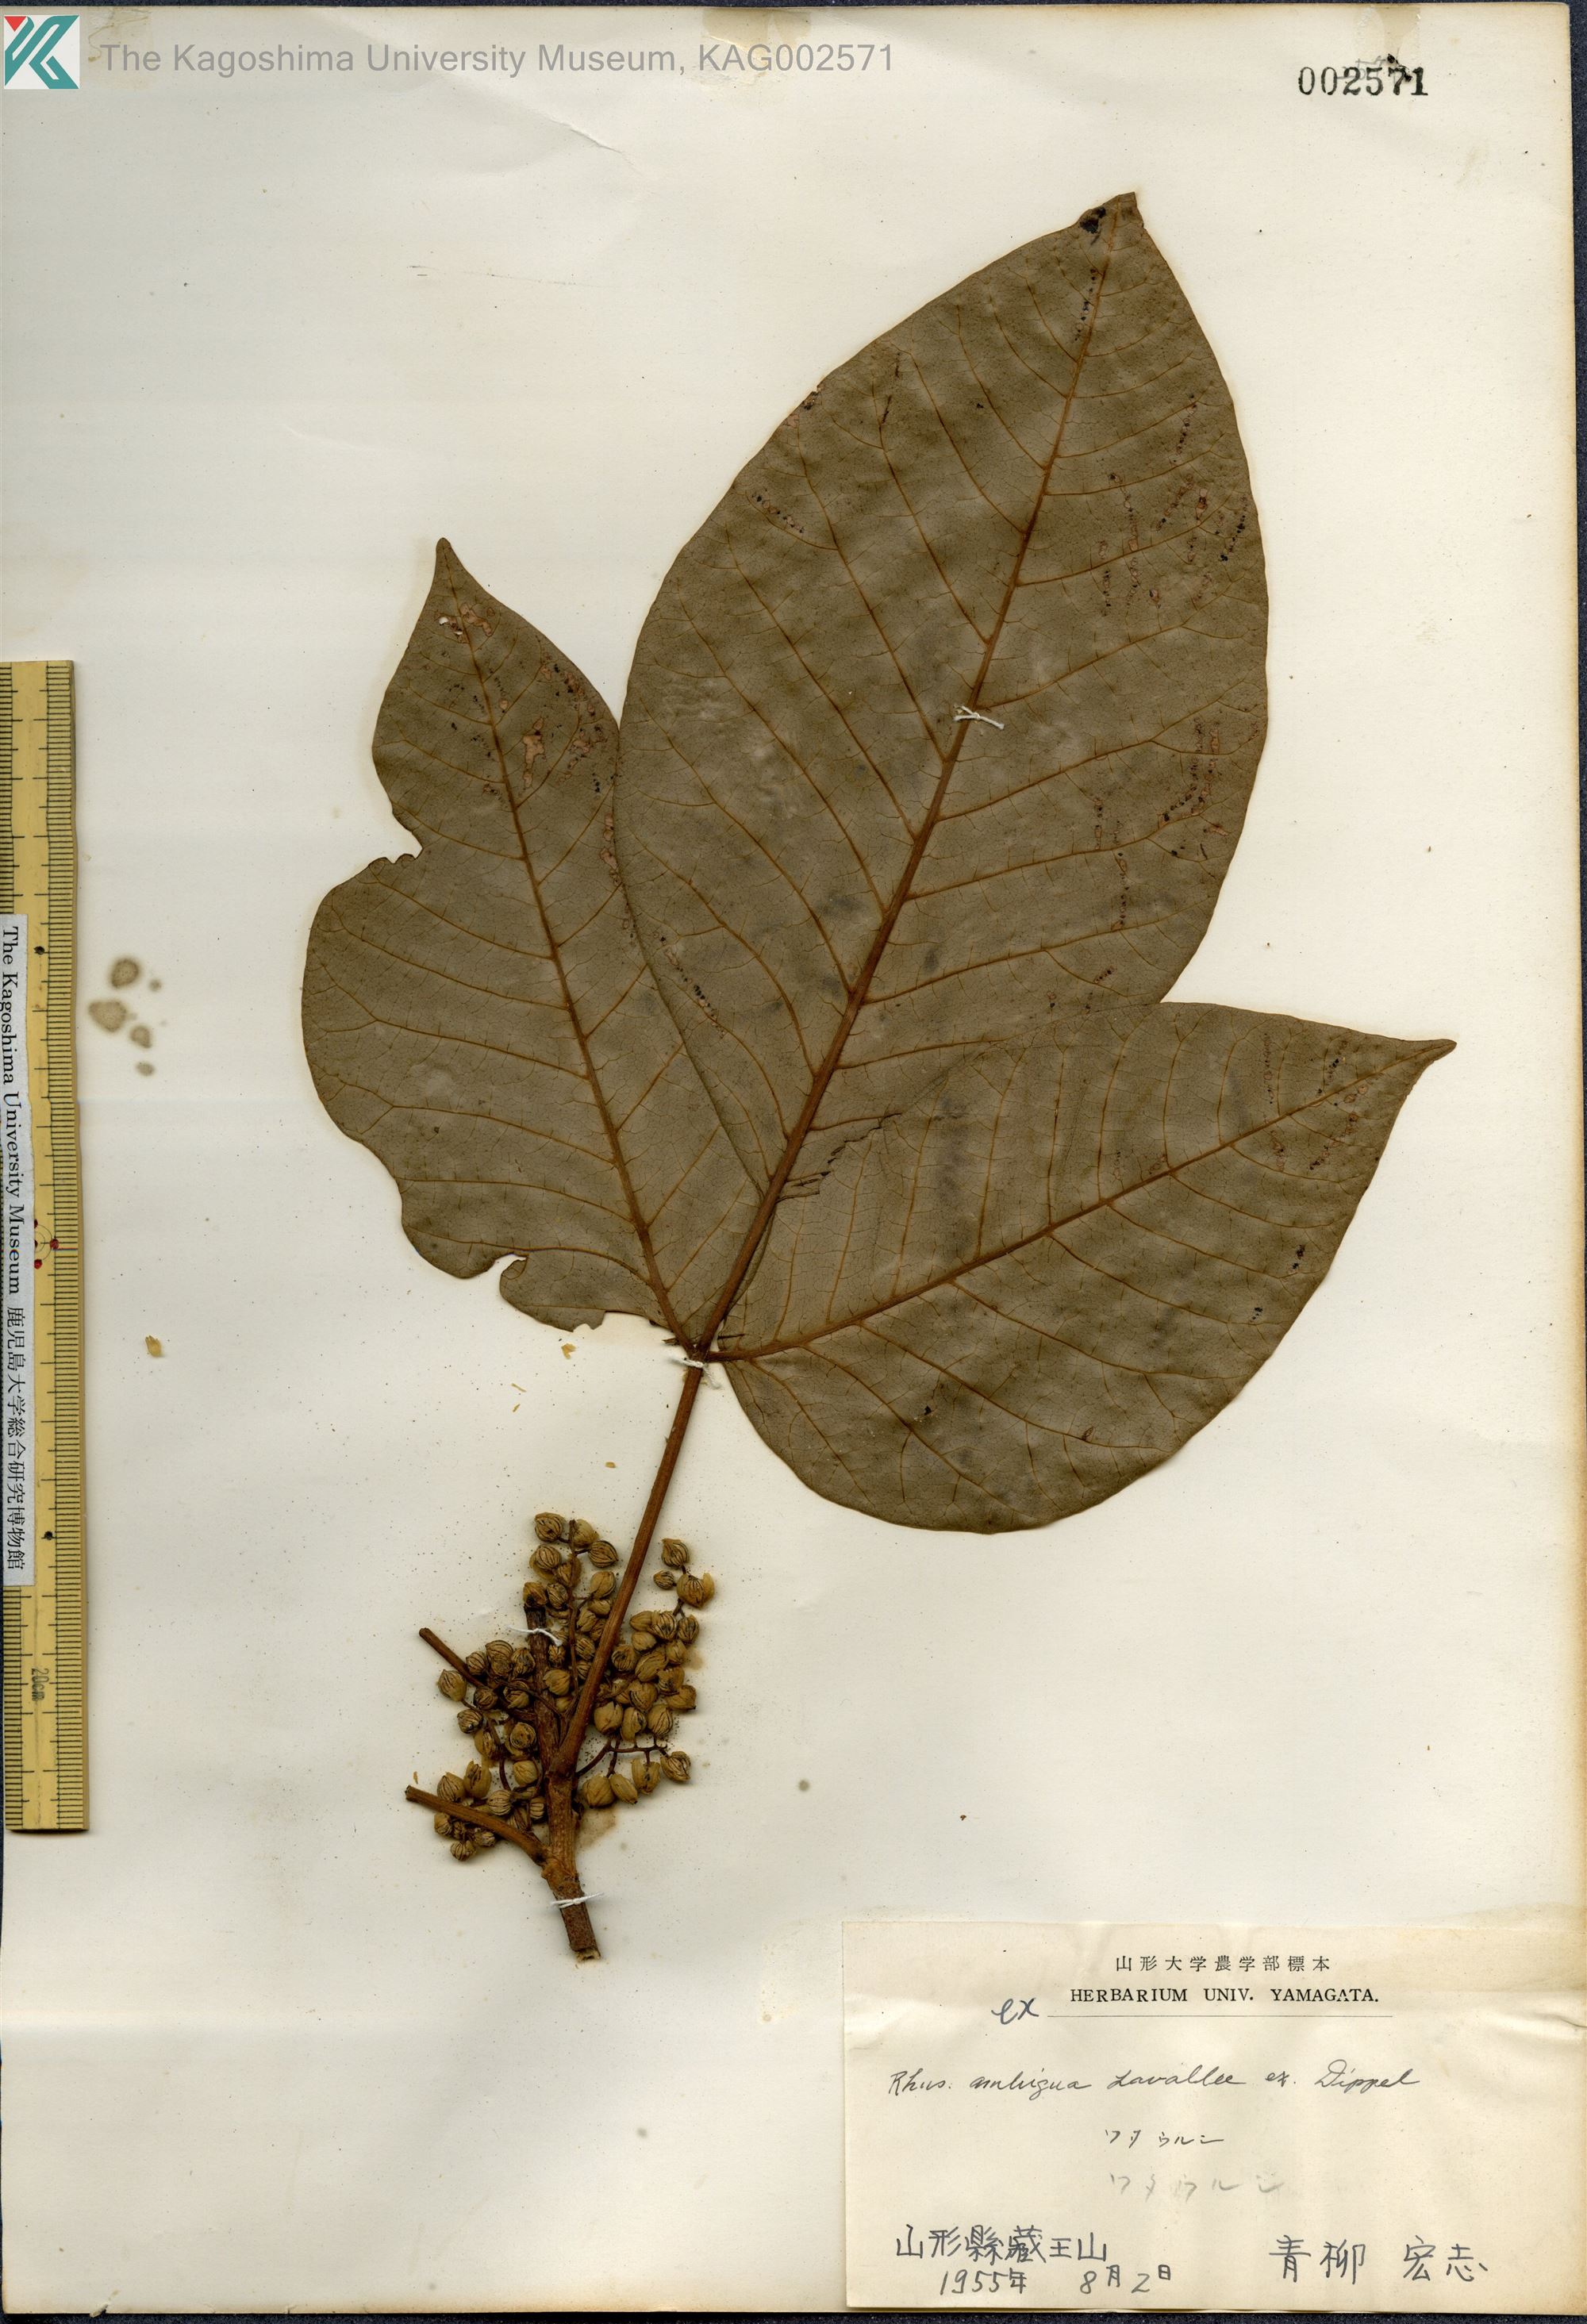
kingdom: Plantae
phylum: Tracheophyta
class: Magnoliopsida
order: Sapindales
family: Anacardiaceae
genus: Toxicodendron
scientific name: Toxicodendron orientale
